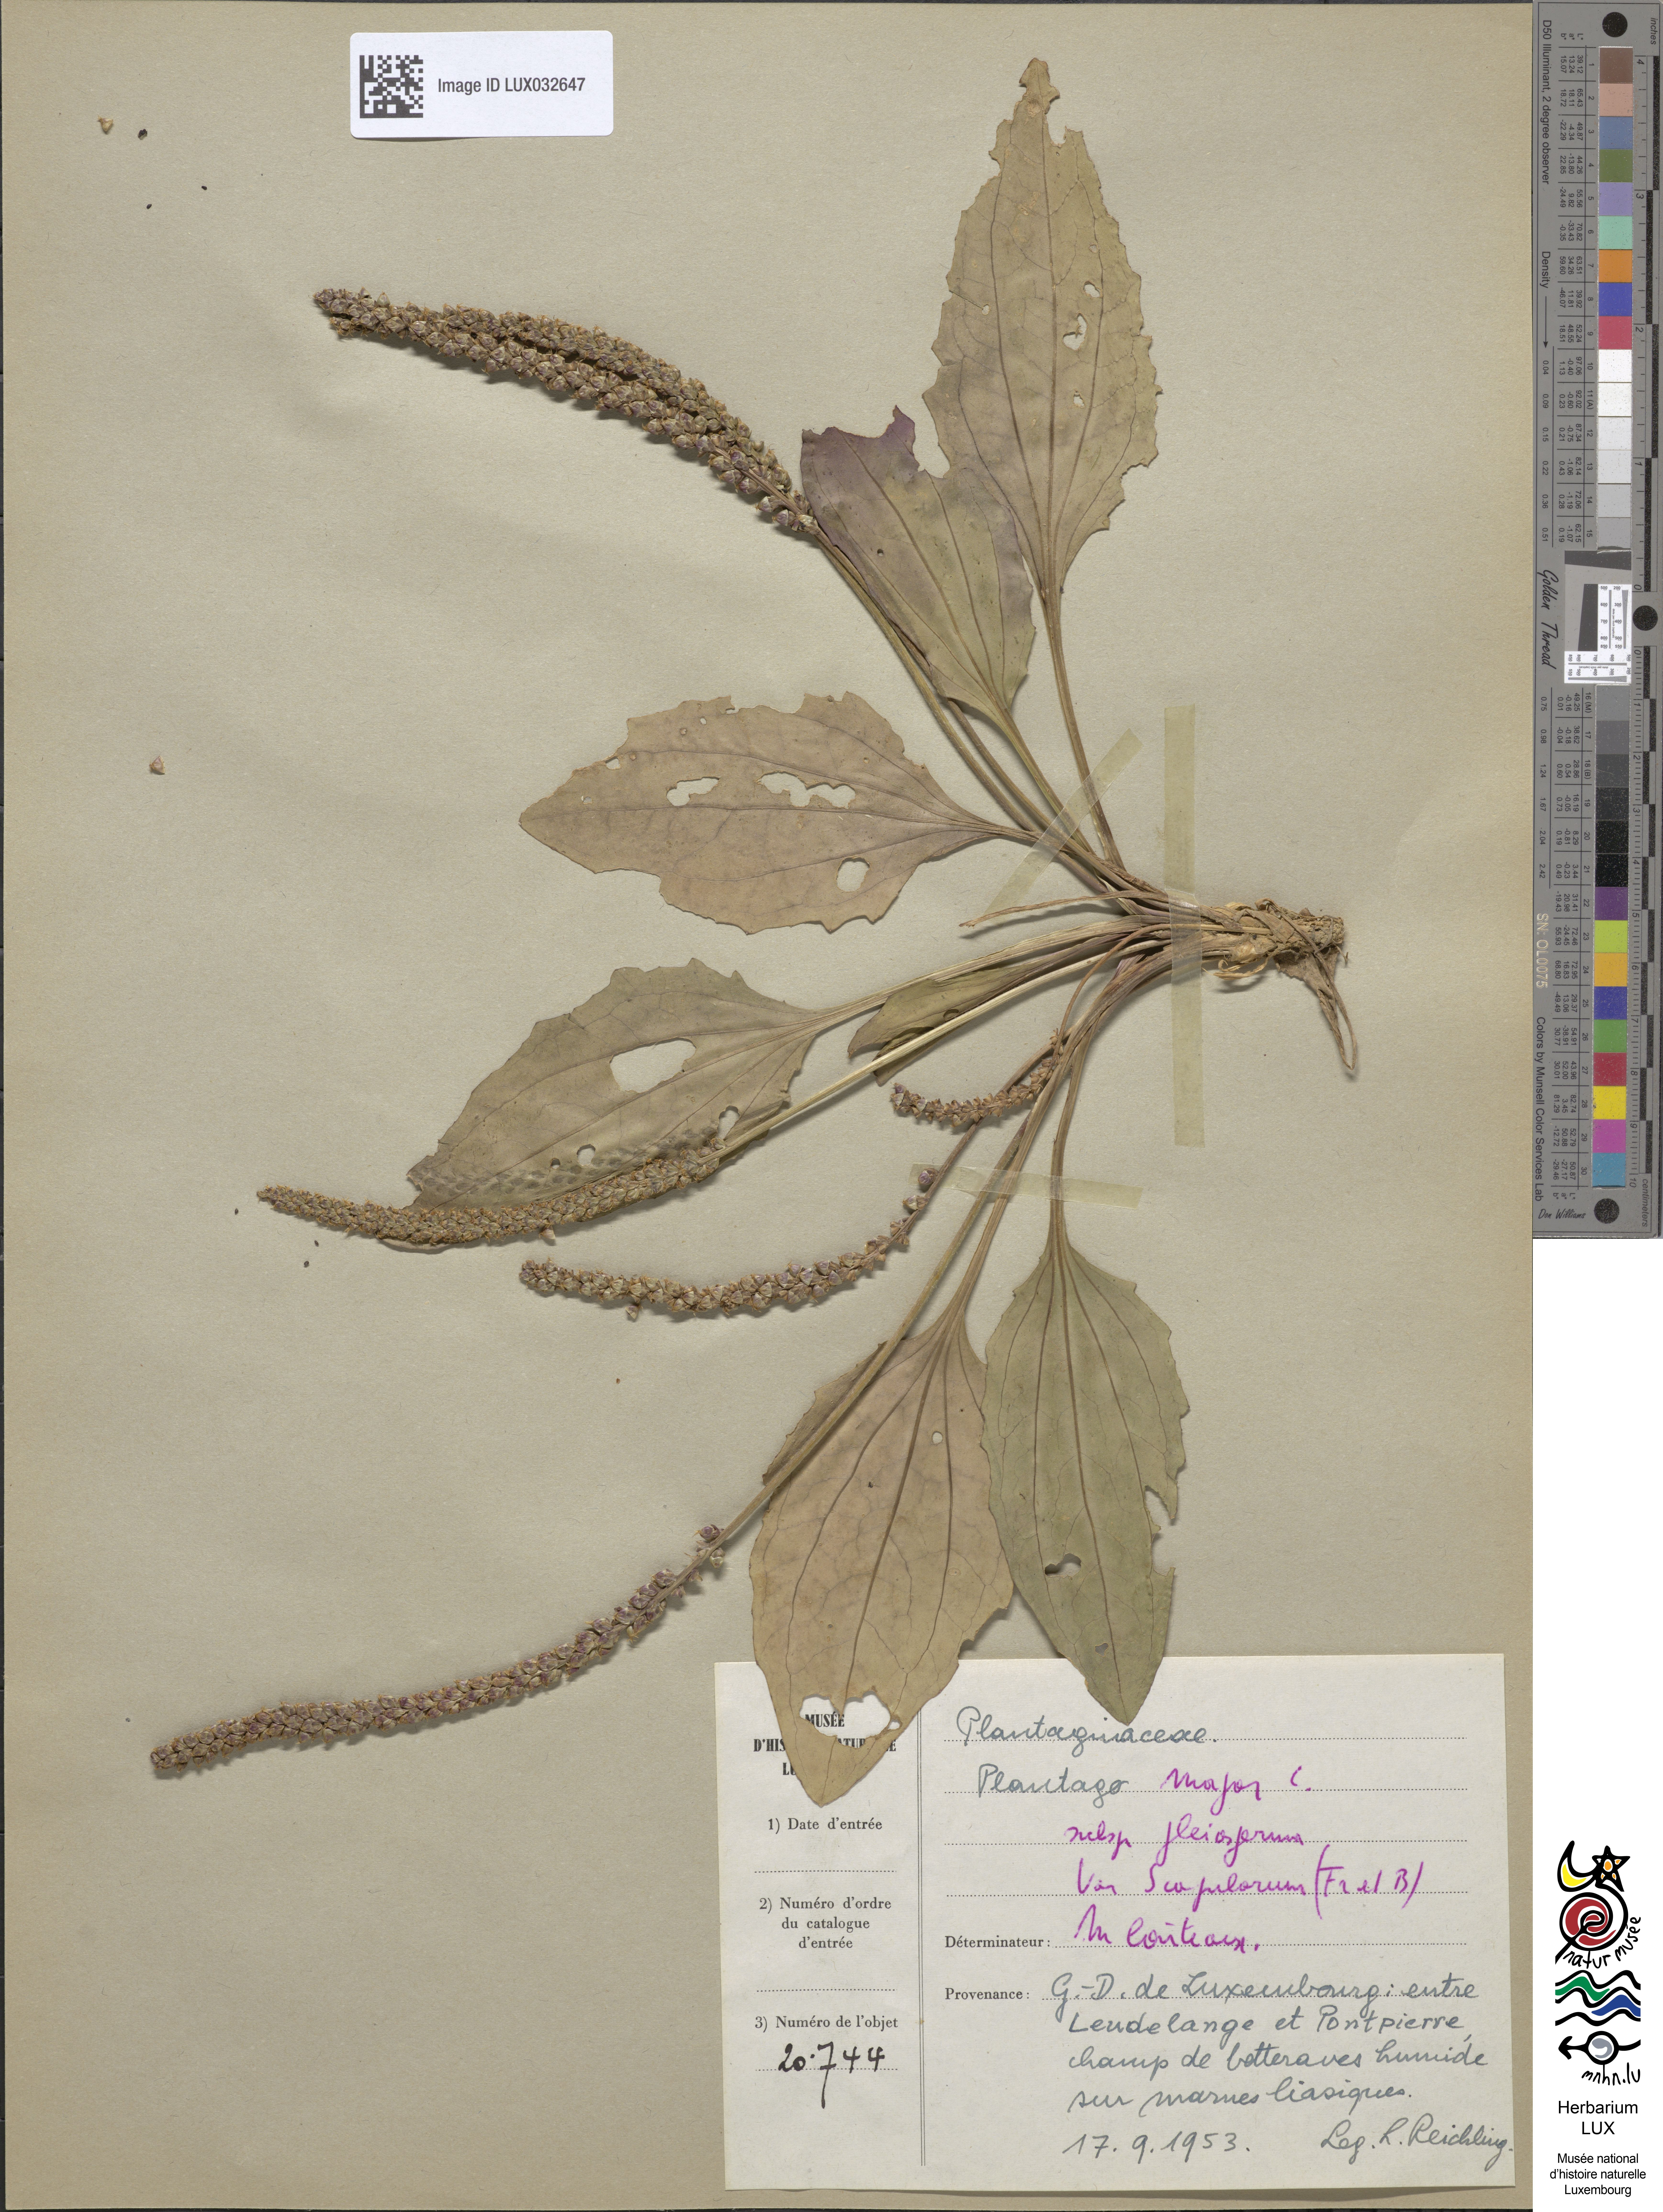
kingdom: Plantae
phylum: Tracheophyta
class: Magnoliopsida
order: Lamiales
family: Plantaginaceae
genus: Plantago
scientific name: Plantago major
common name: Common plantain
